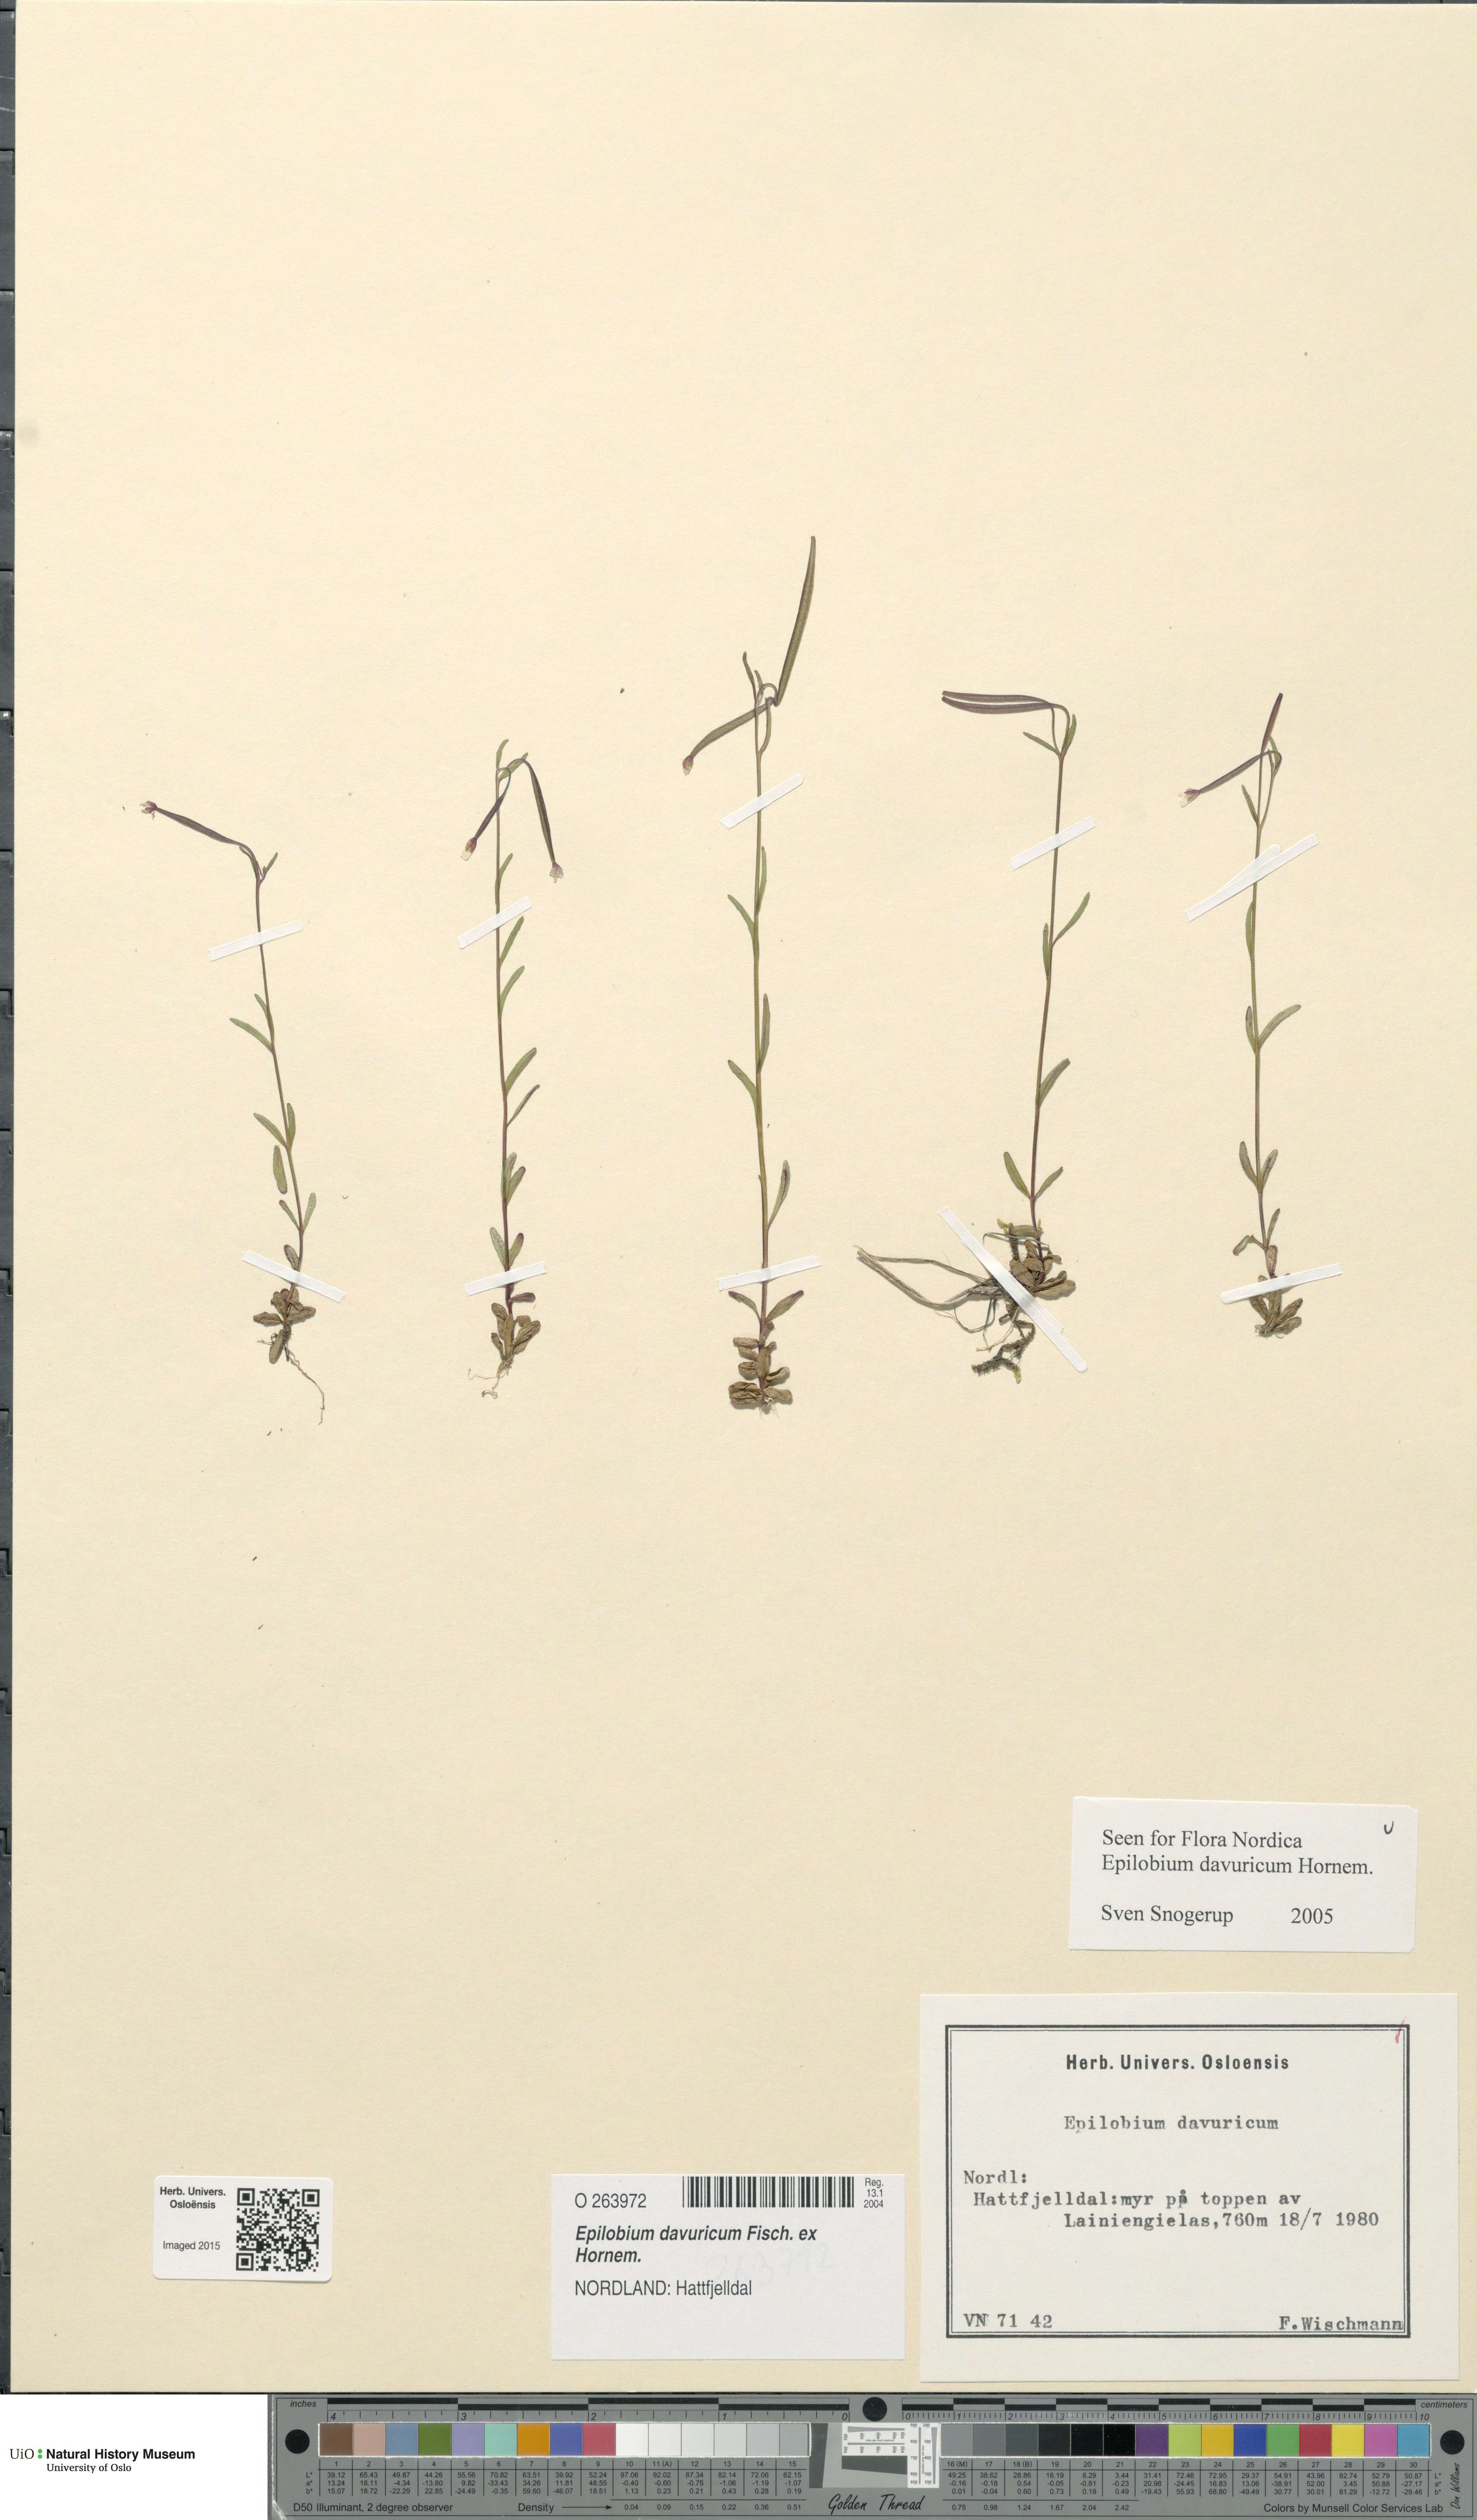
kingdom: Plantae
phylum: Tracheophyta
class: Magnoliopsida
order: Myrtales
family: Onagraceae
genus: Epilobium
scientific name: Epilobium davuricum
